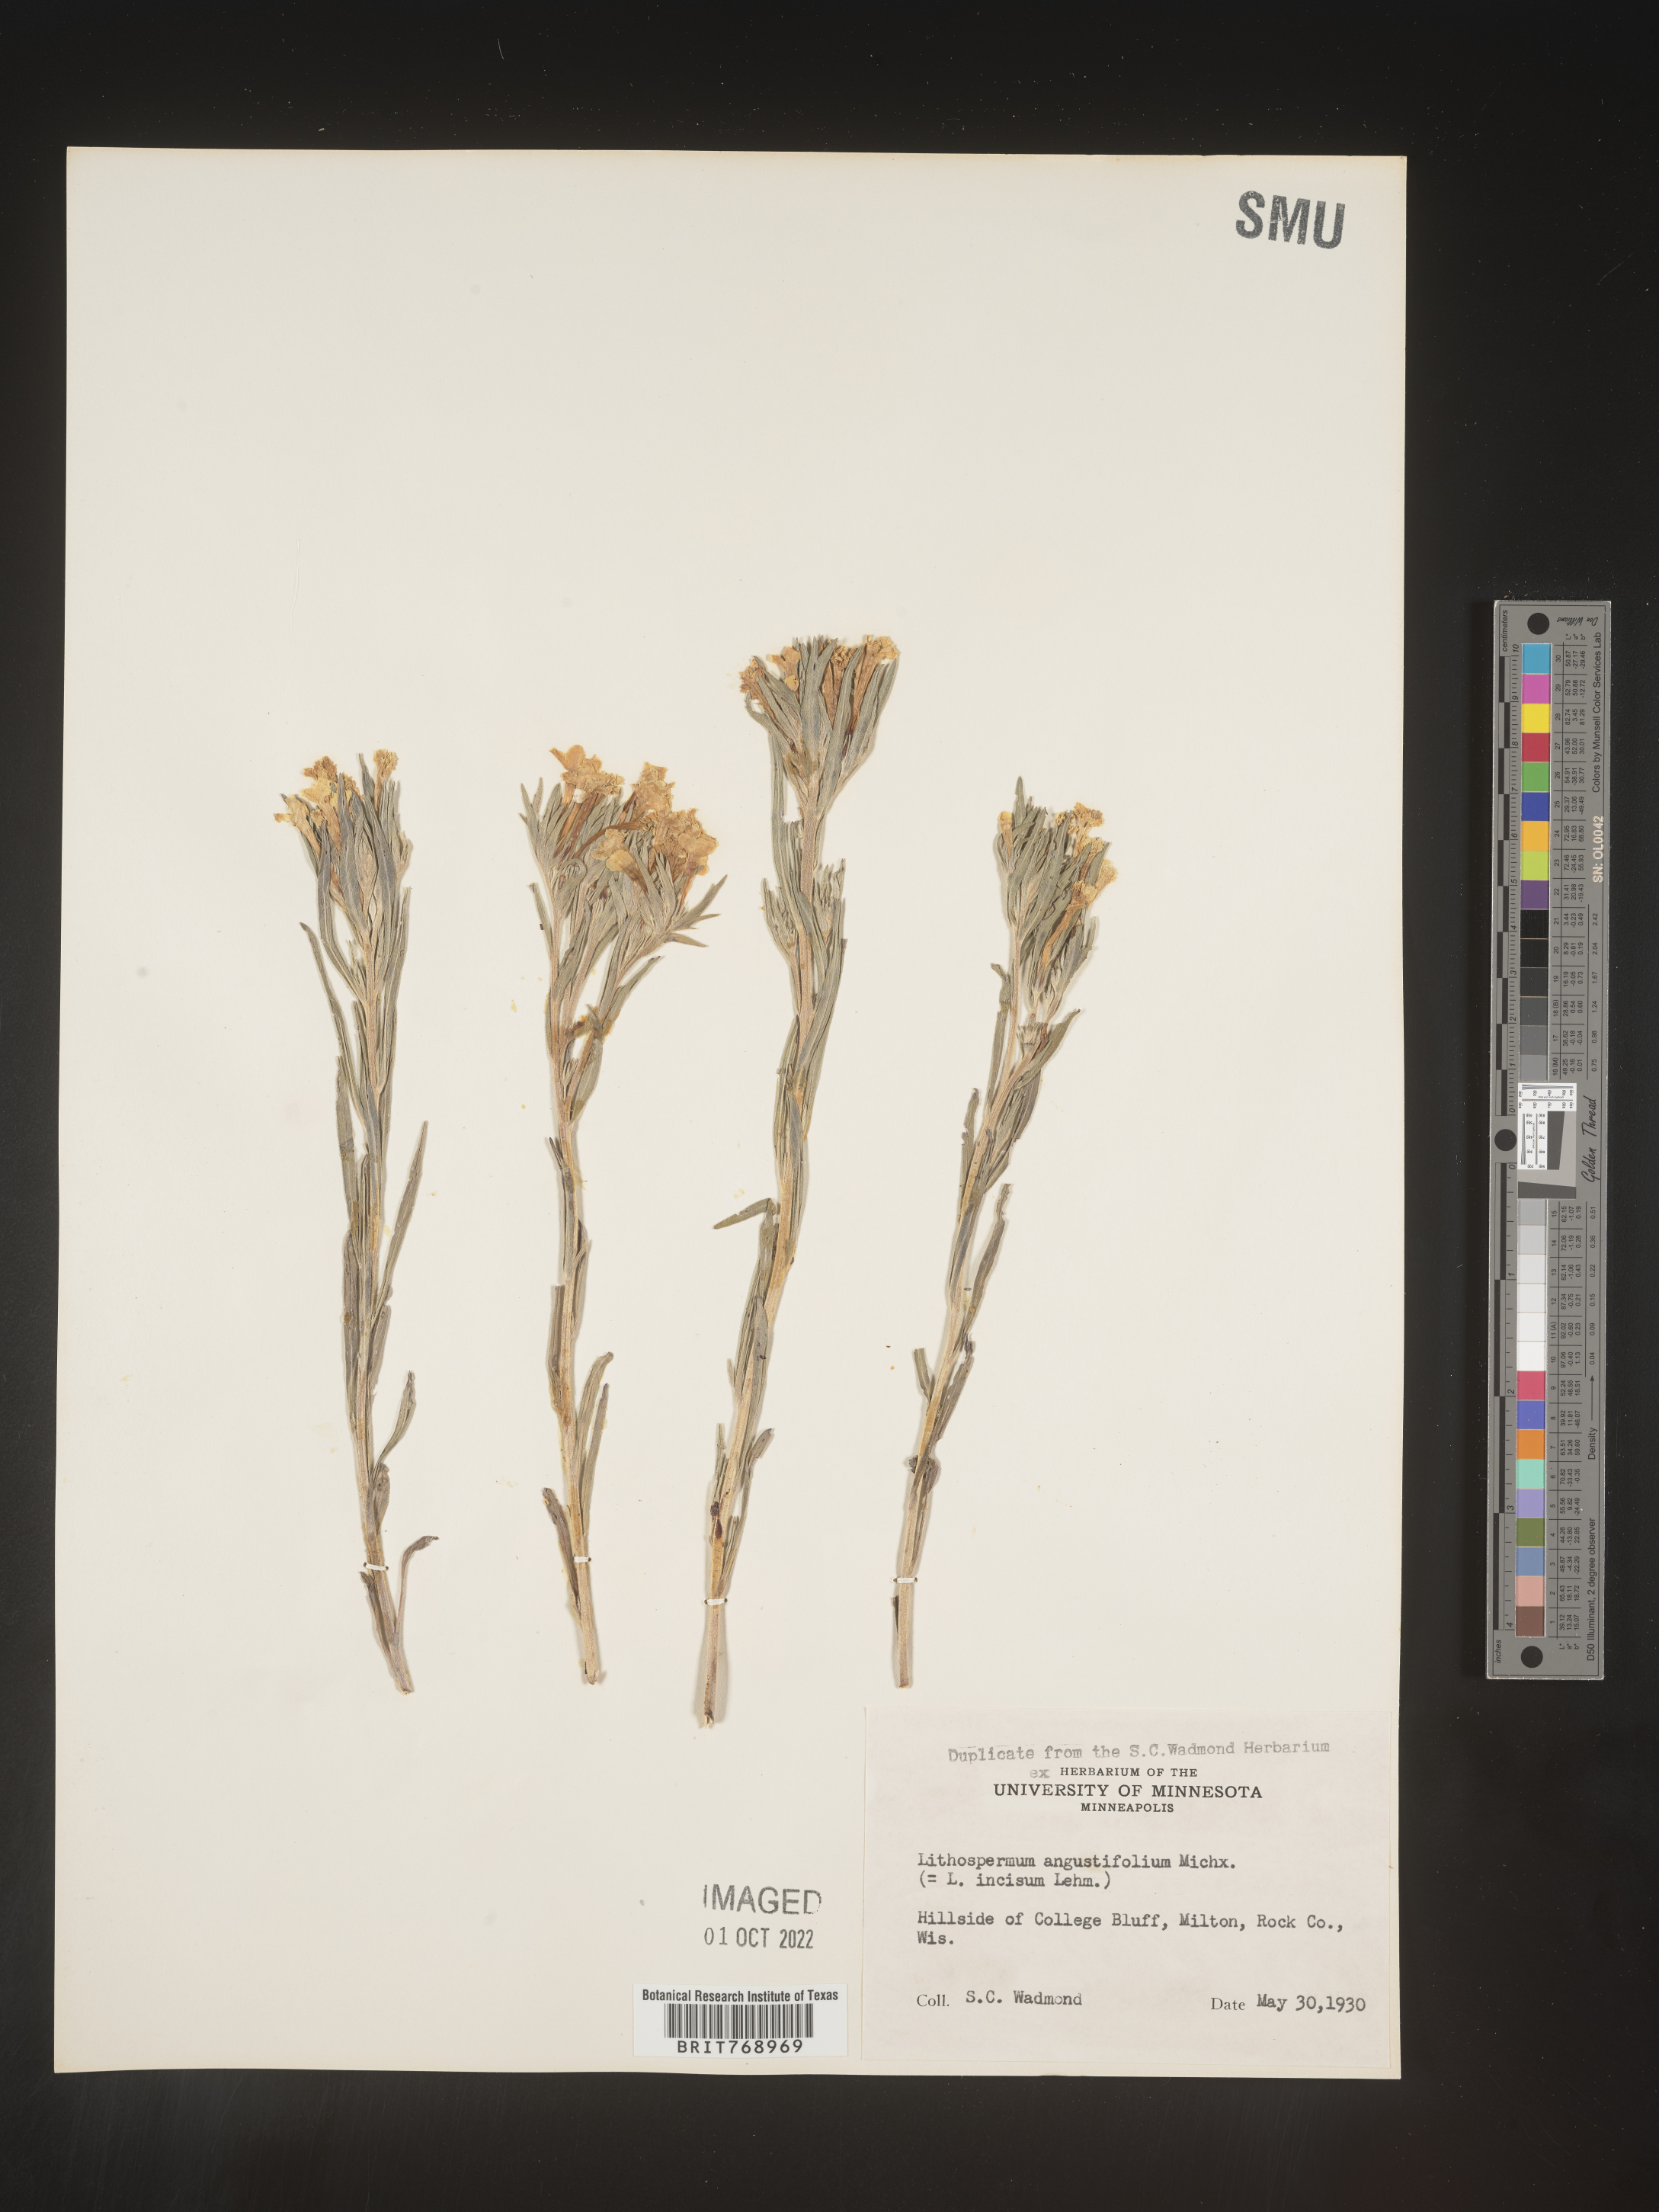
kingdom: Plantae
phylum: Tracheophyta
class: Magnoliopsida
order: Boraginales
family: Boraginaceae
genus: Lithospermum
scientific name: Lithospermum incisum
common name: Fringed gromwell
